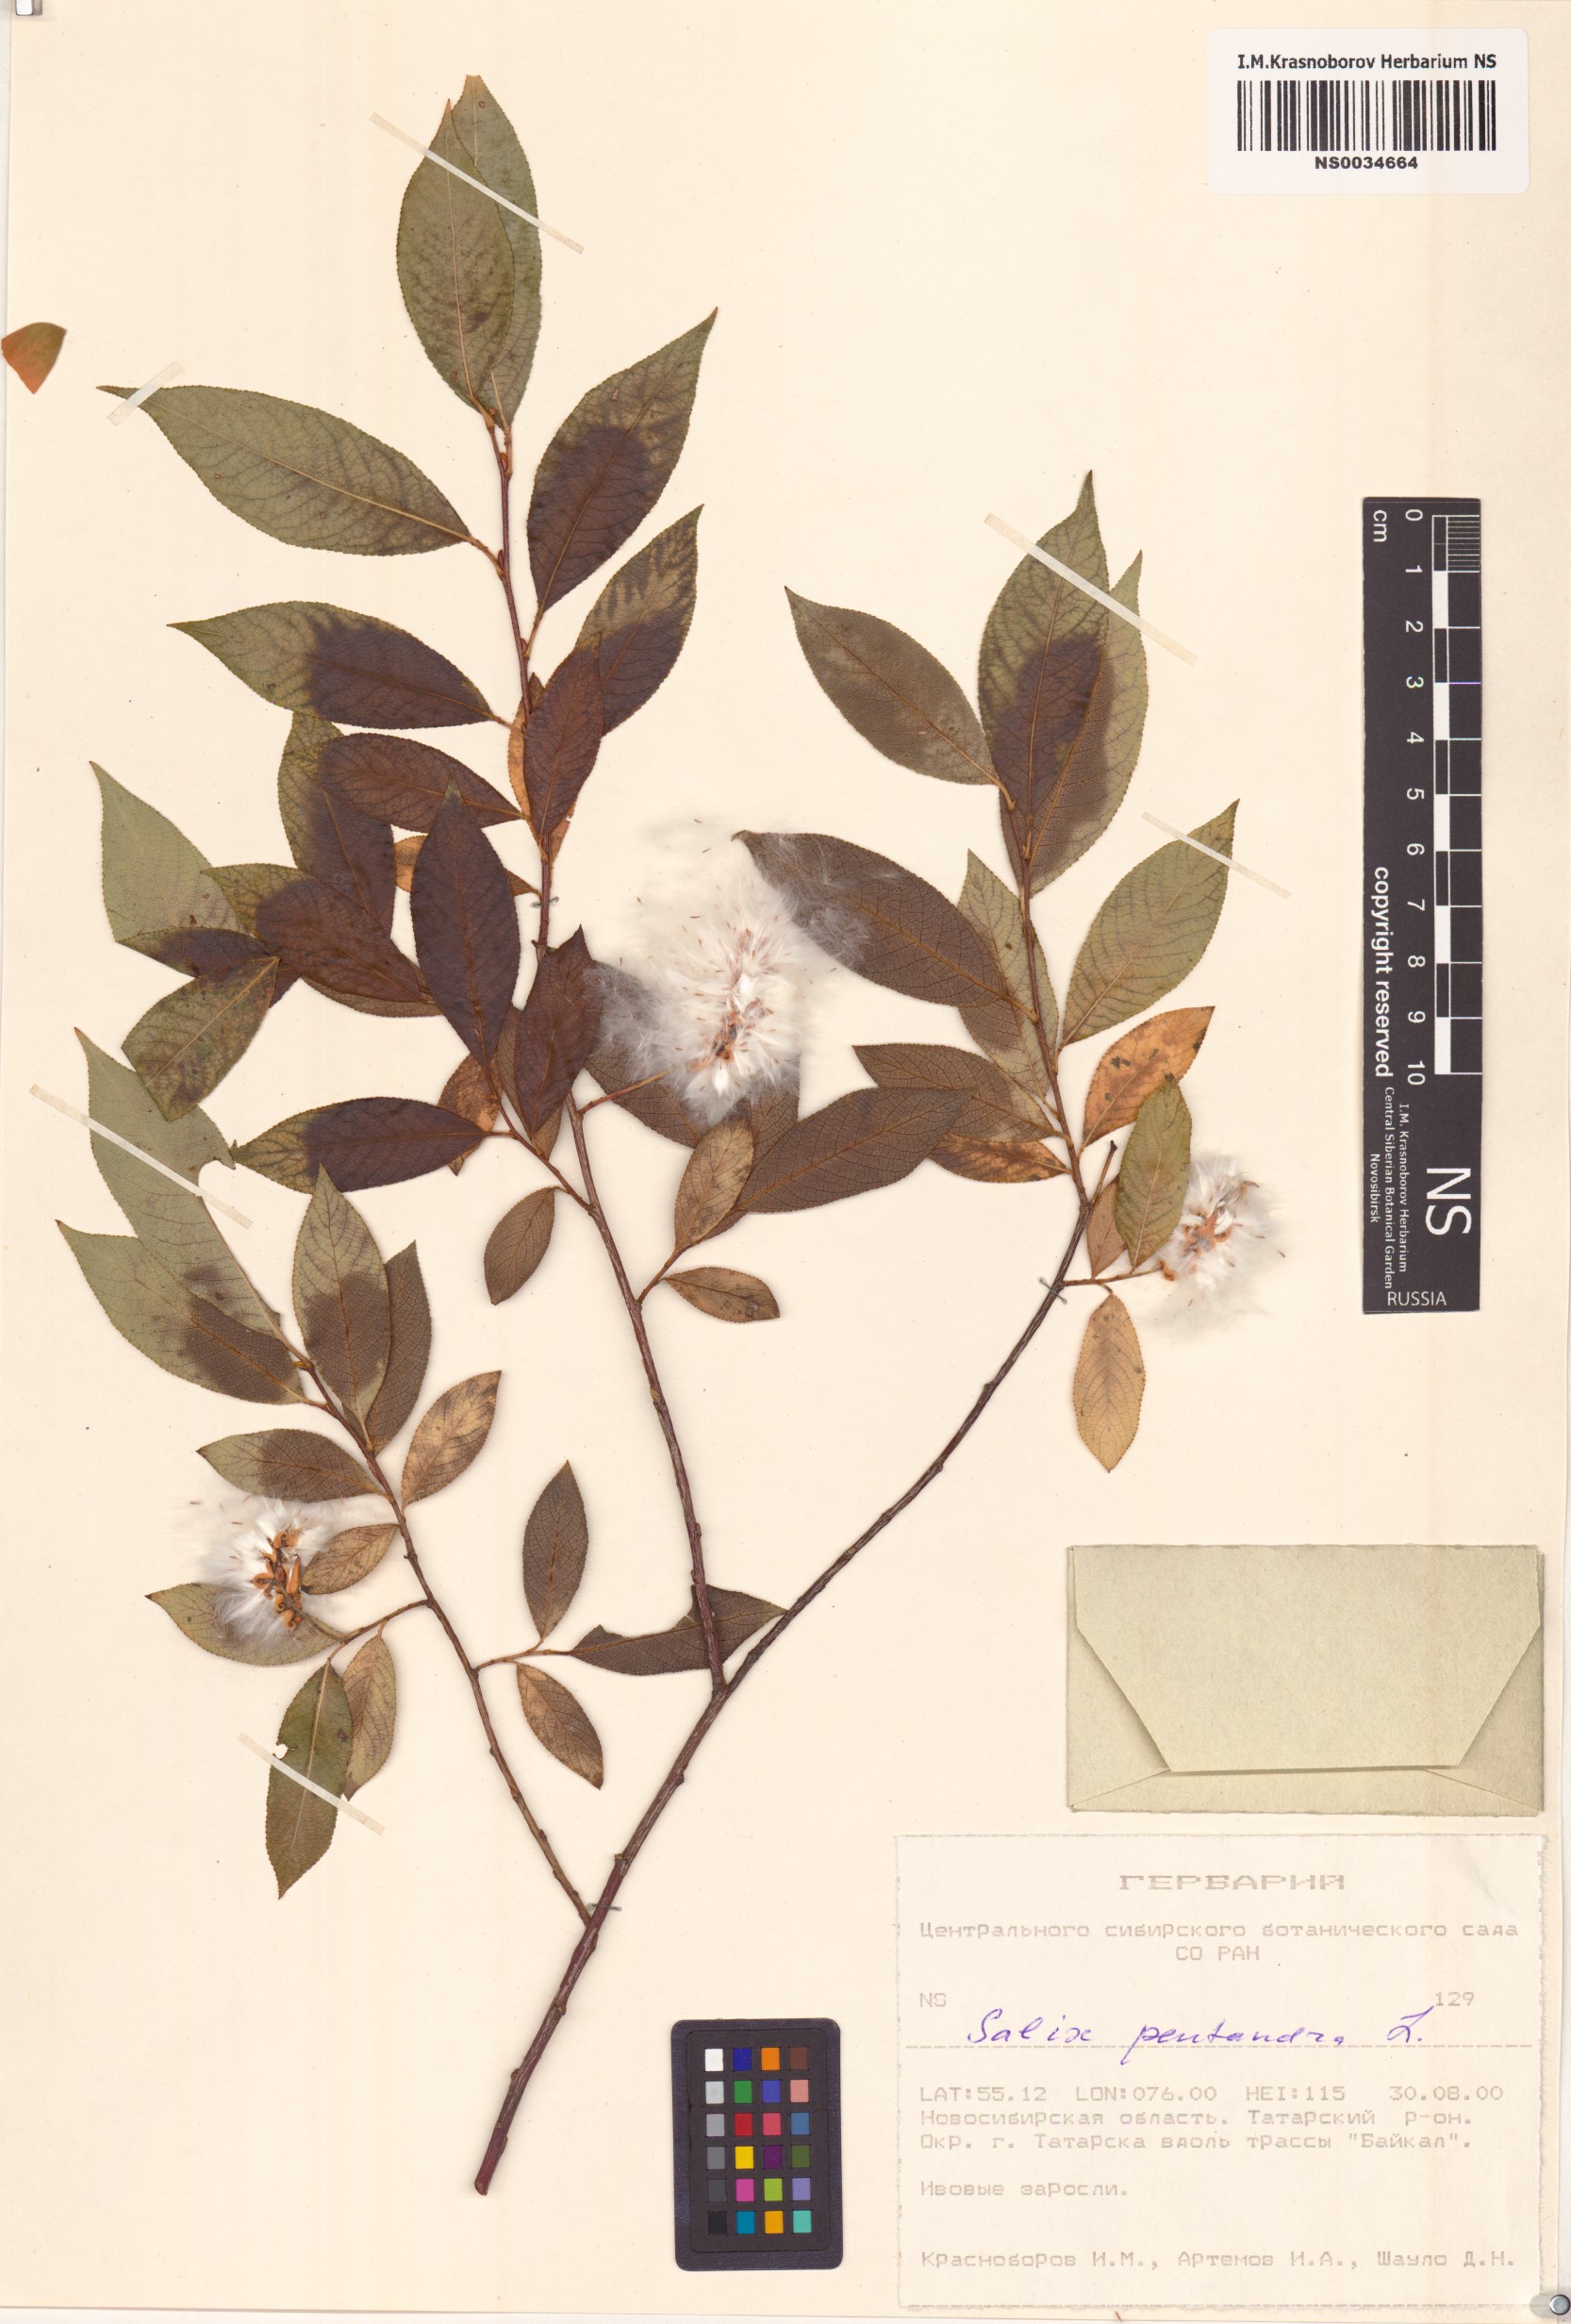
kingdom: Plantae
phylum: Tracheophyta
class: Magnoliopsida
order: Malpighiales
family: Salicaceae
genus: Salix
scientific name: Salix pentandra
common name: Bay willow
